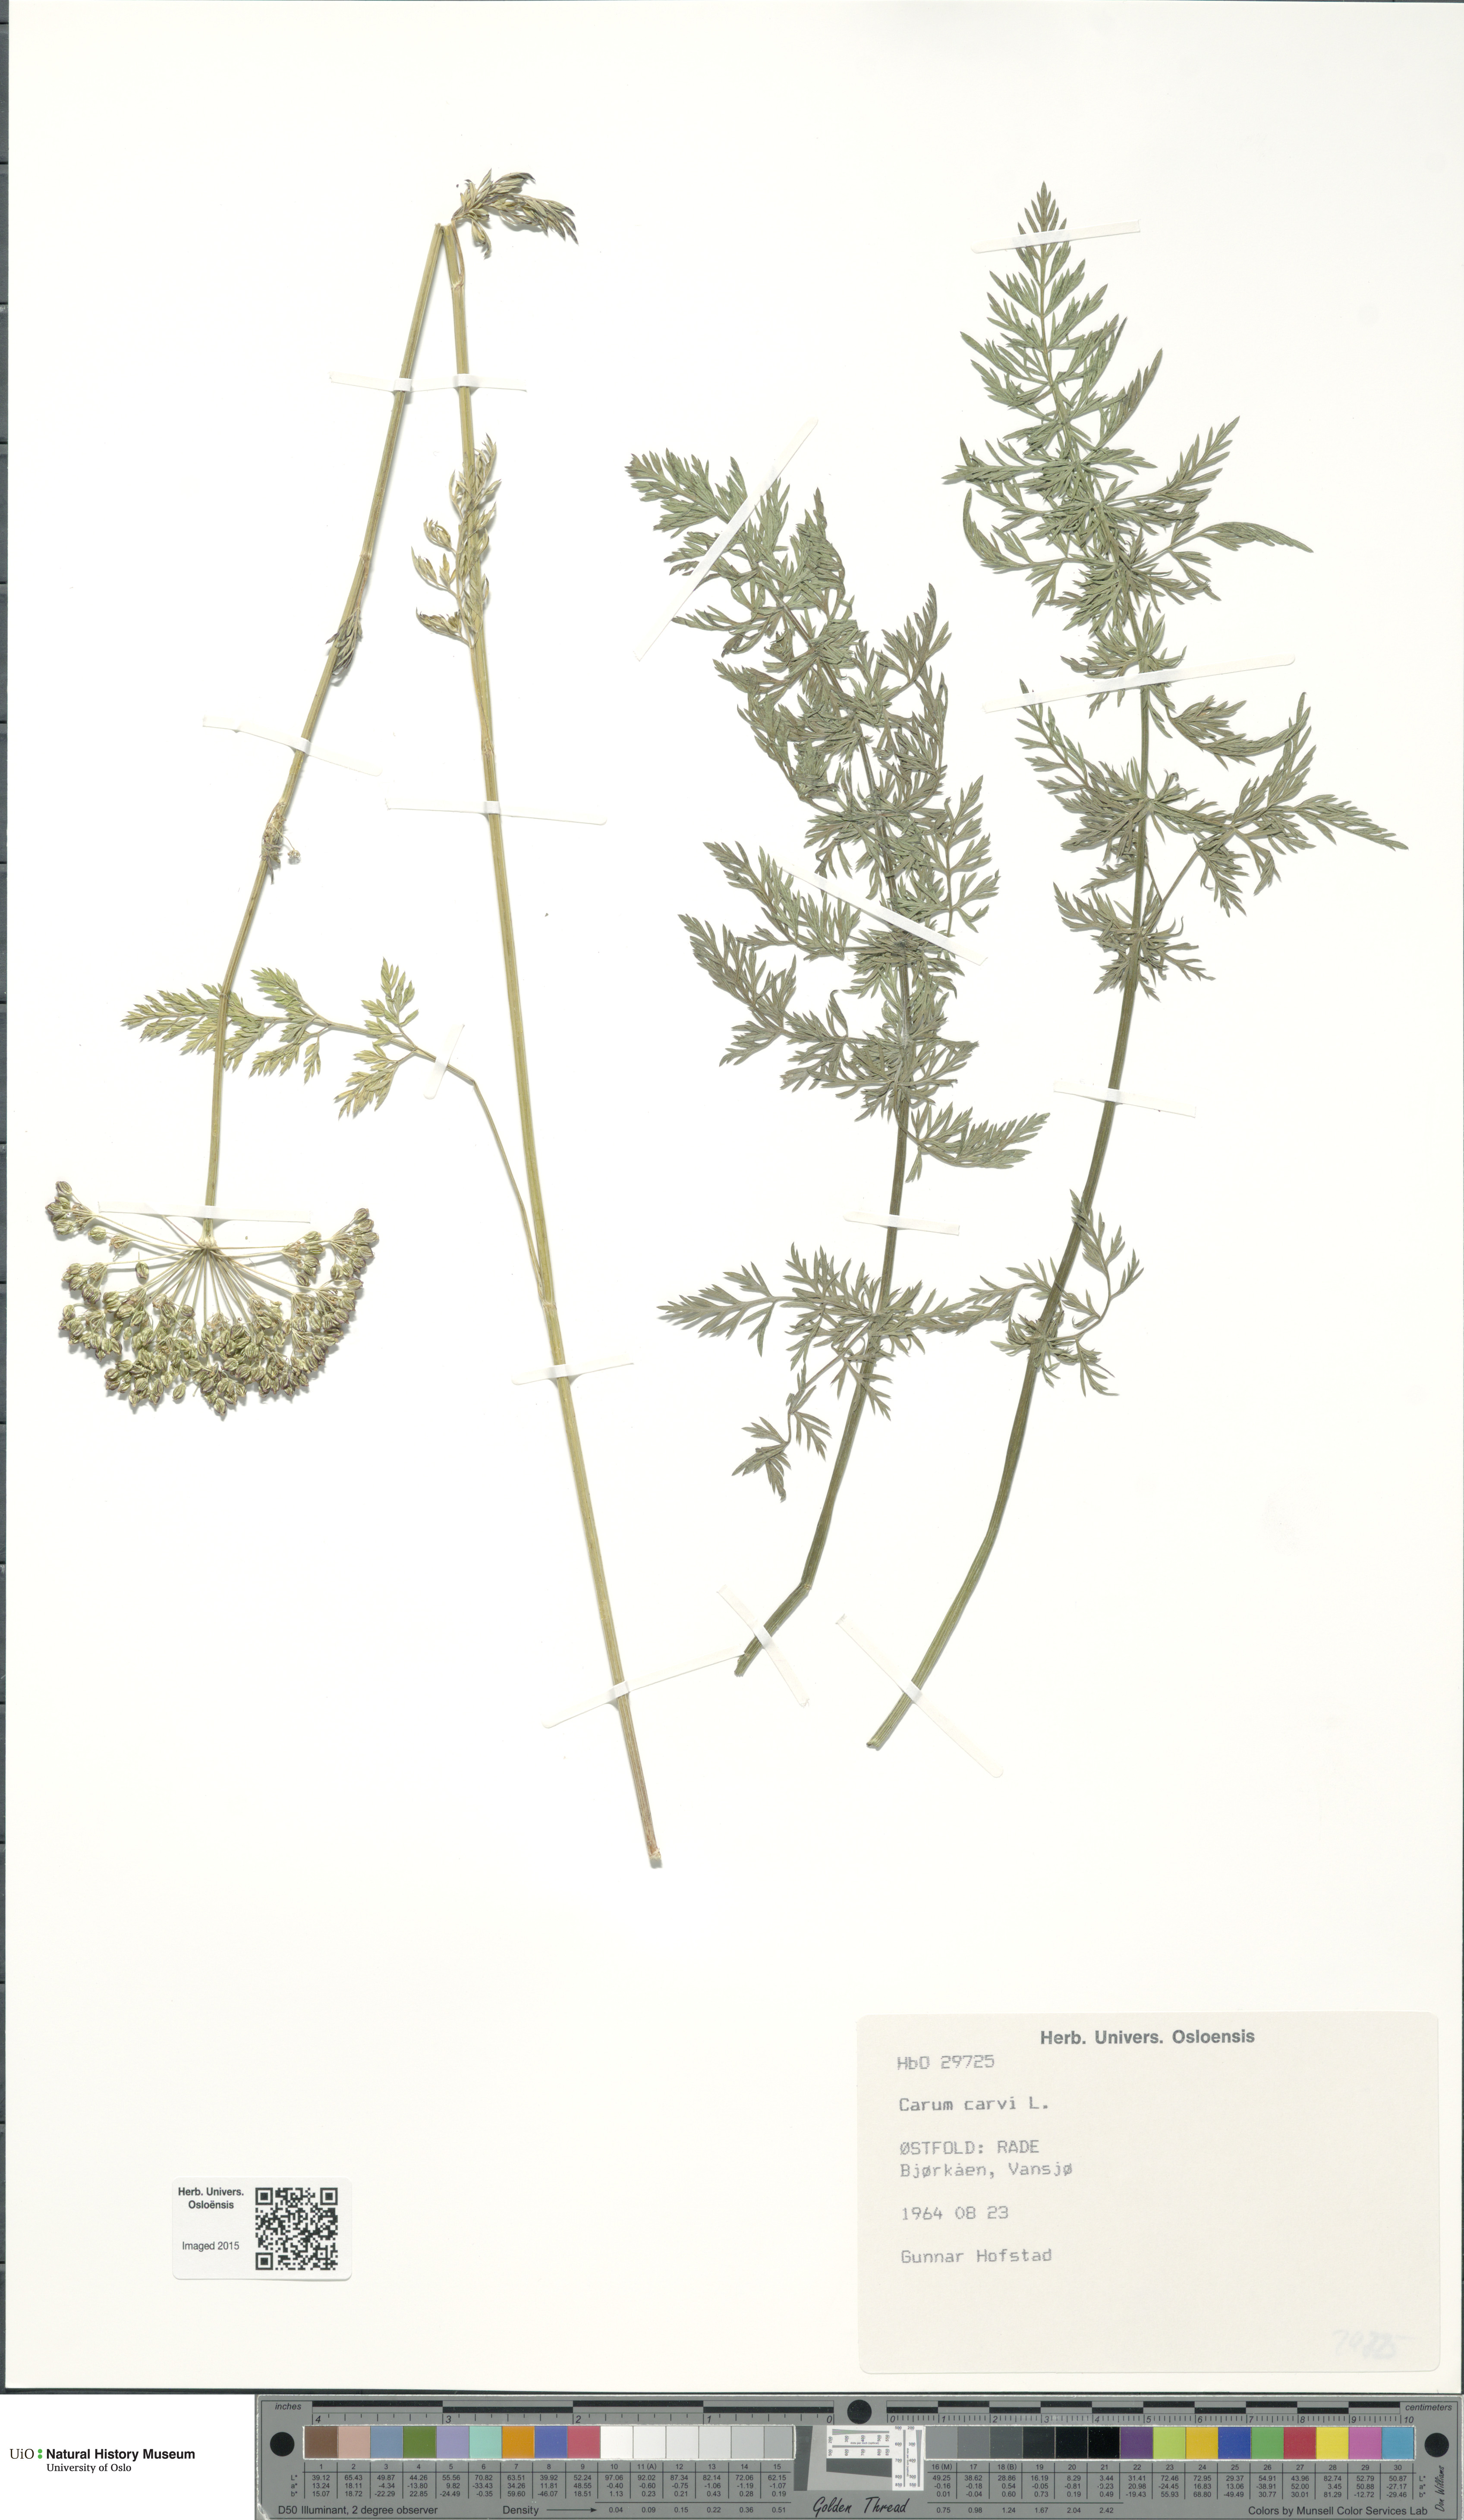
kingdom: Plantae
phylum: Tracheophyta
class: Magnoliopsida
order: Apiales
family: Apiaceae
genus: Carum
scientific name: Carum carvi
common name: Caraway
